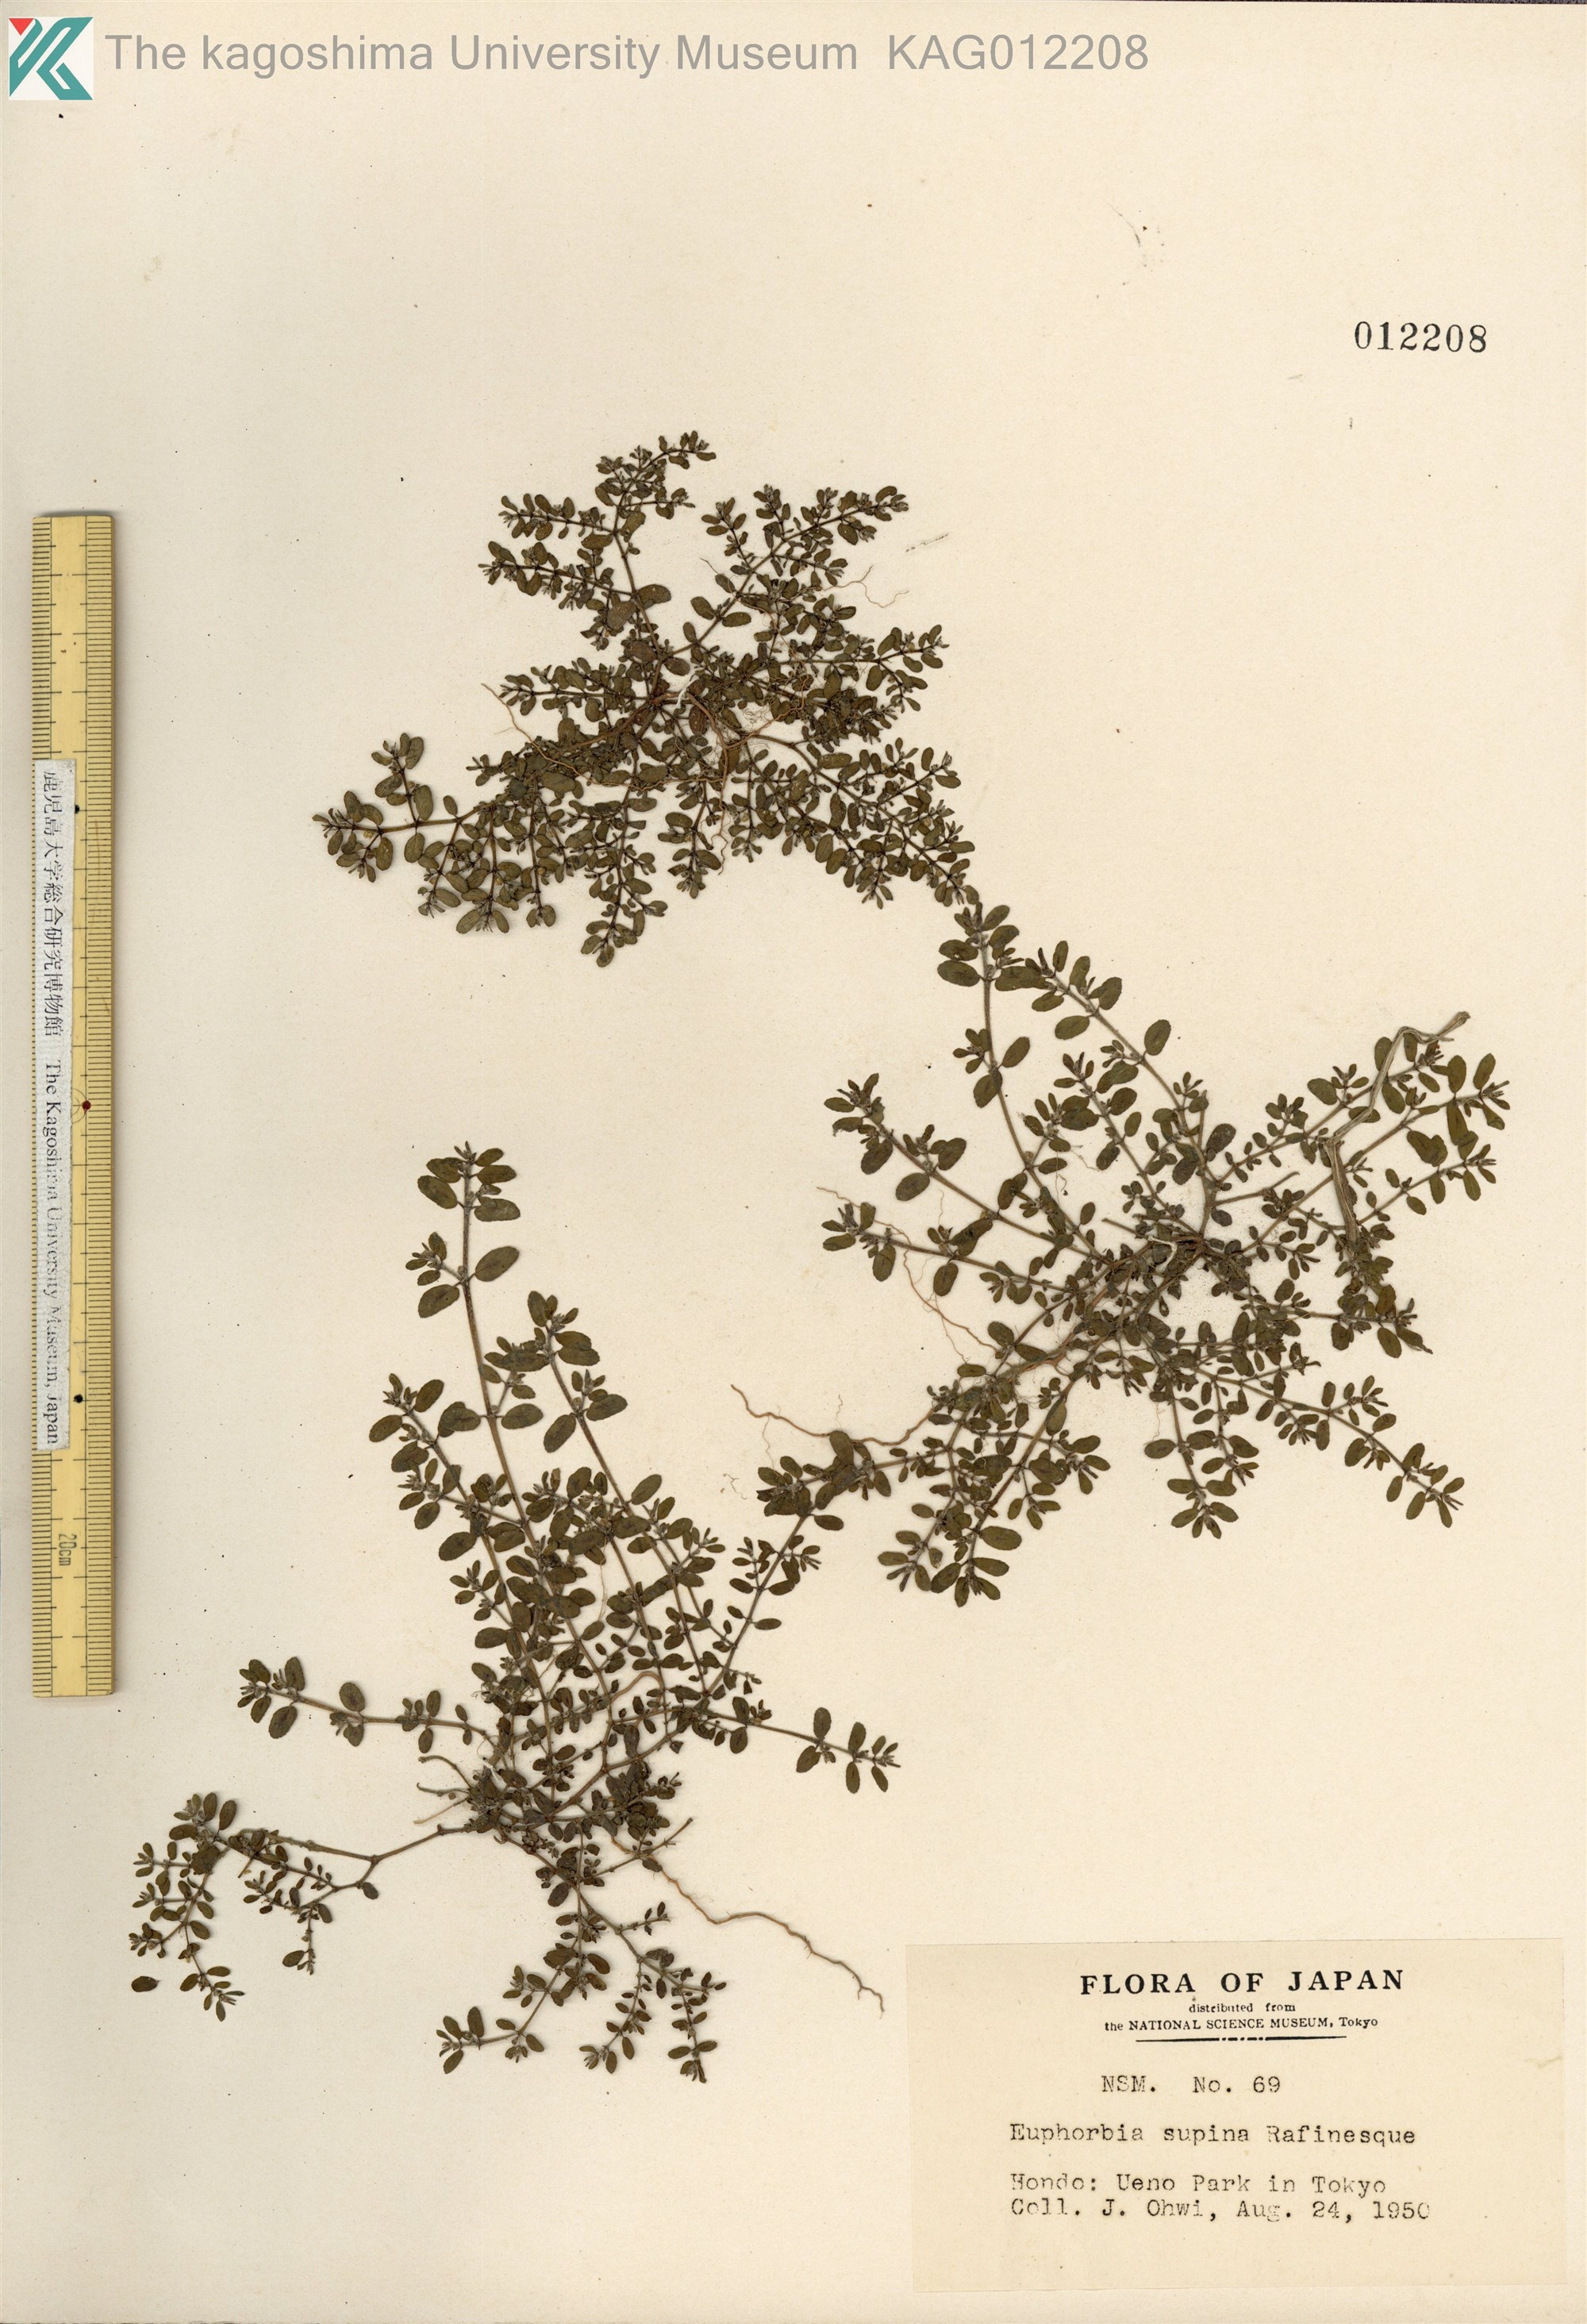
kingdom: Plantae
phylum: Tracheophyta
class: Magnoliopsida
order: Malpighiales
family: Euphorbiaceae
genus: Euphorbia
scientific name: Euphorbia maculata
